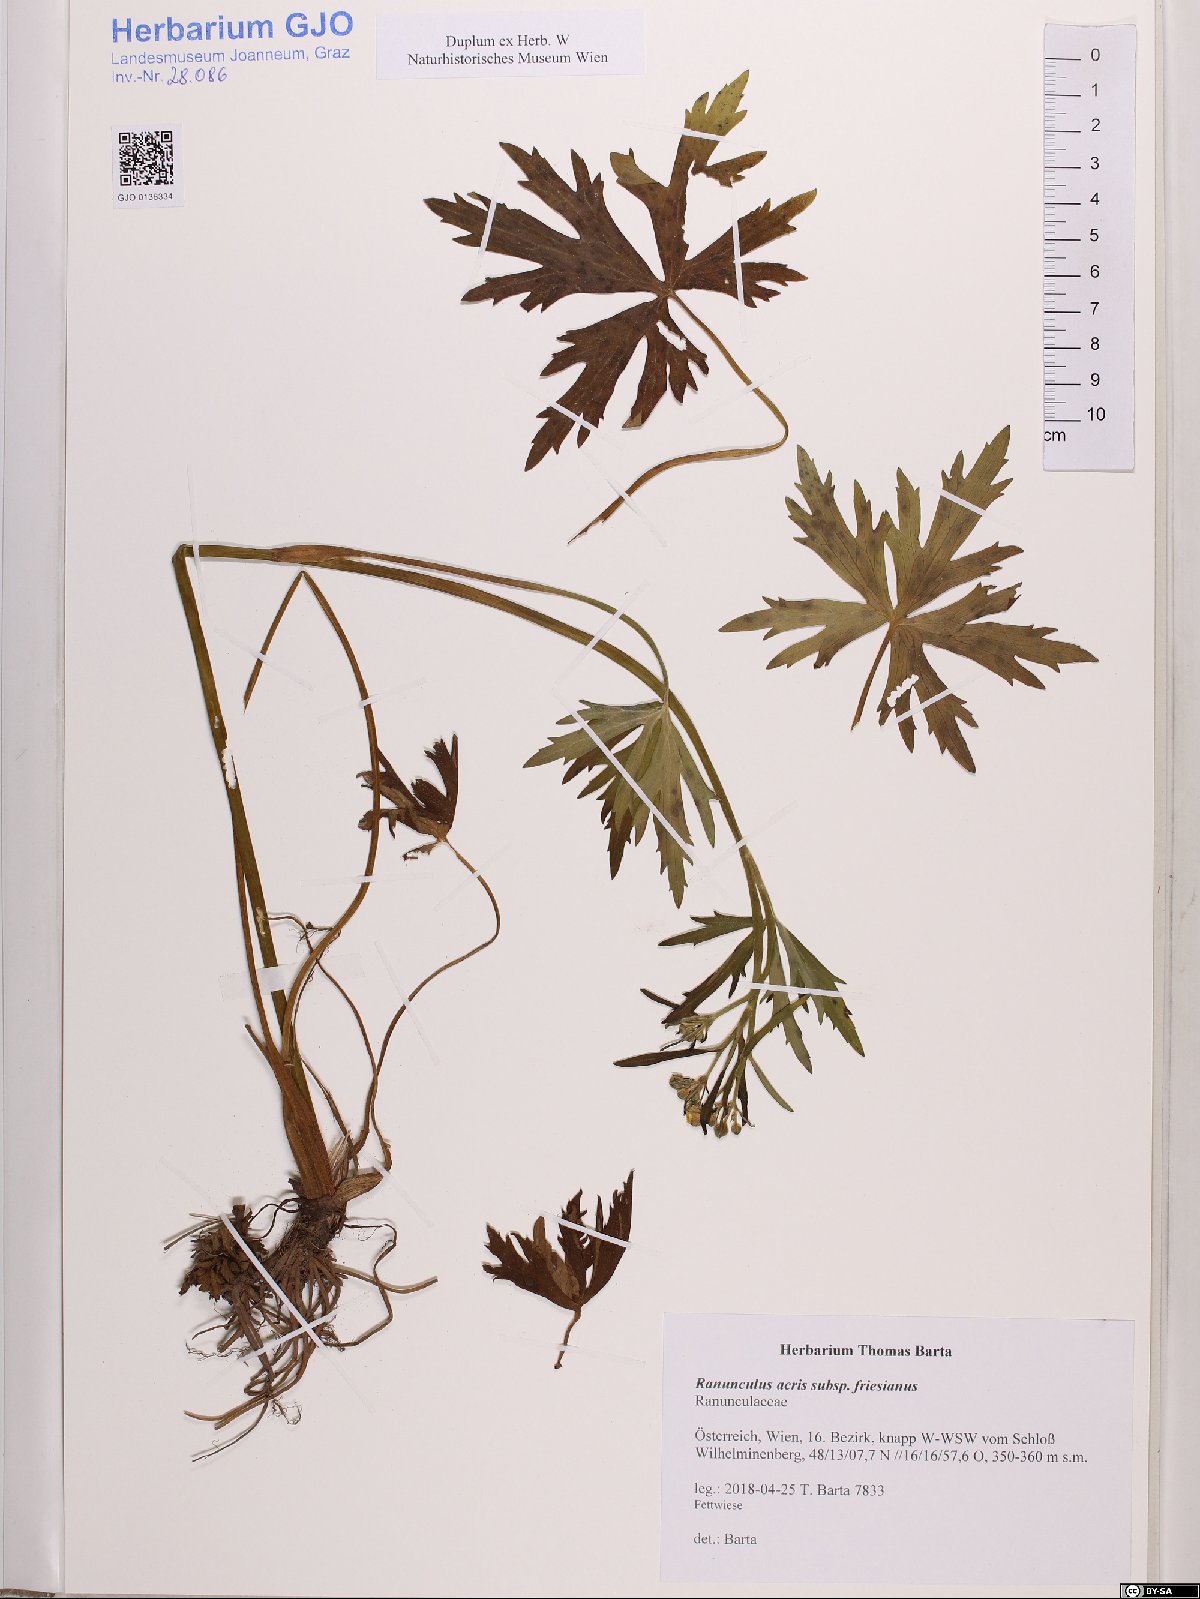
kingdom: Plantae
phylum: Tracheophyta
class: Magnoliopsida
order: Ranunculales
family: Ranunculaceae
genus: Ranunculus
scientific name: Ranunculus acris
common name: Meadow buttercup
